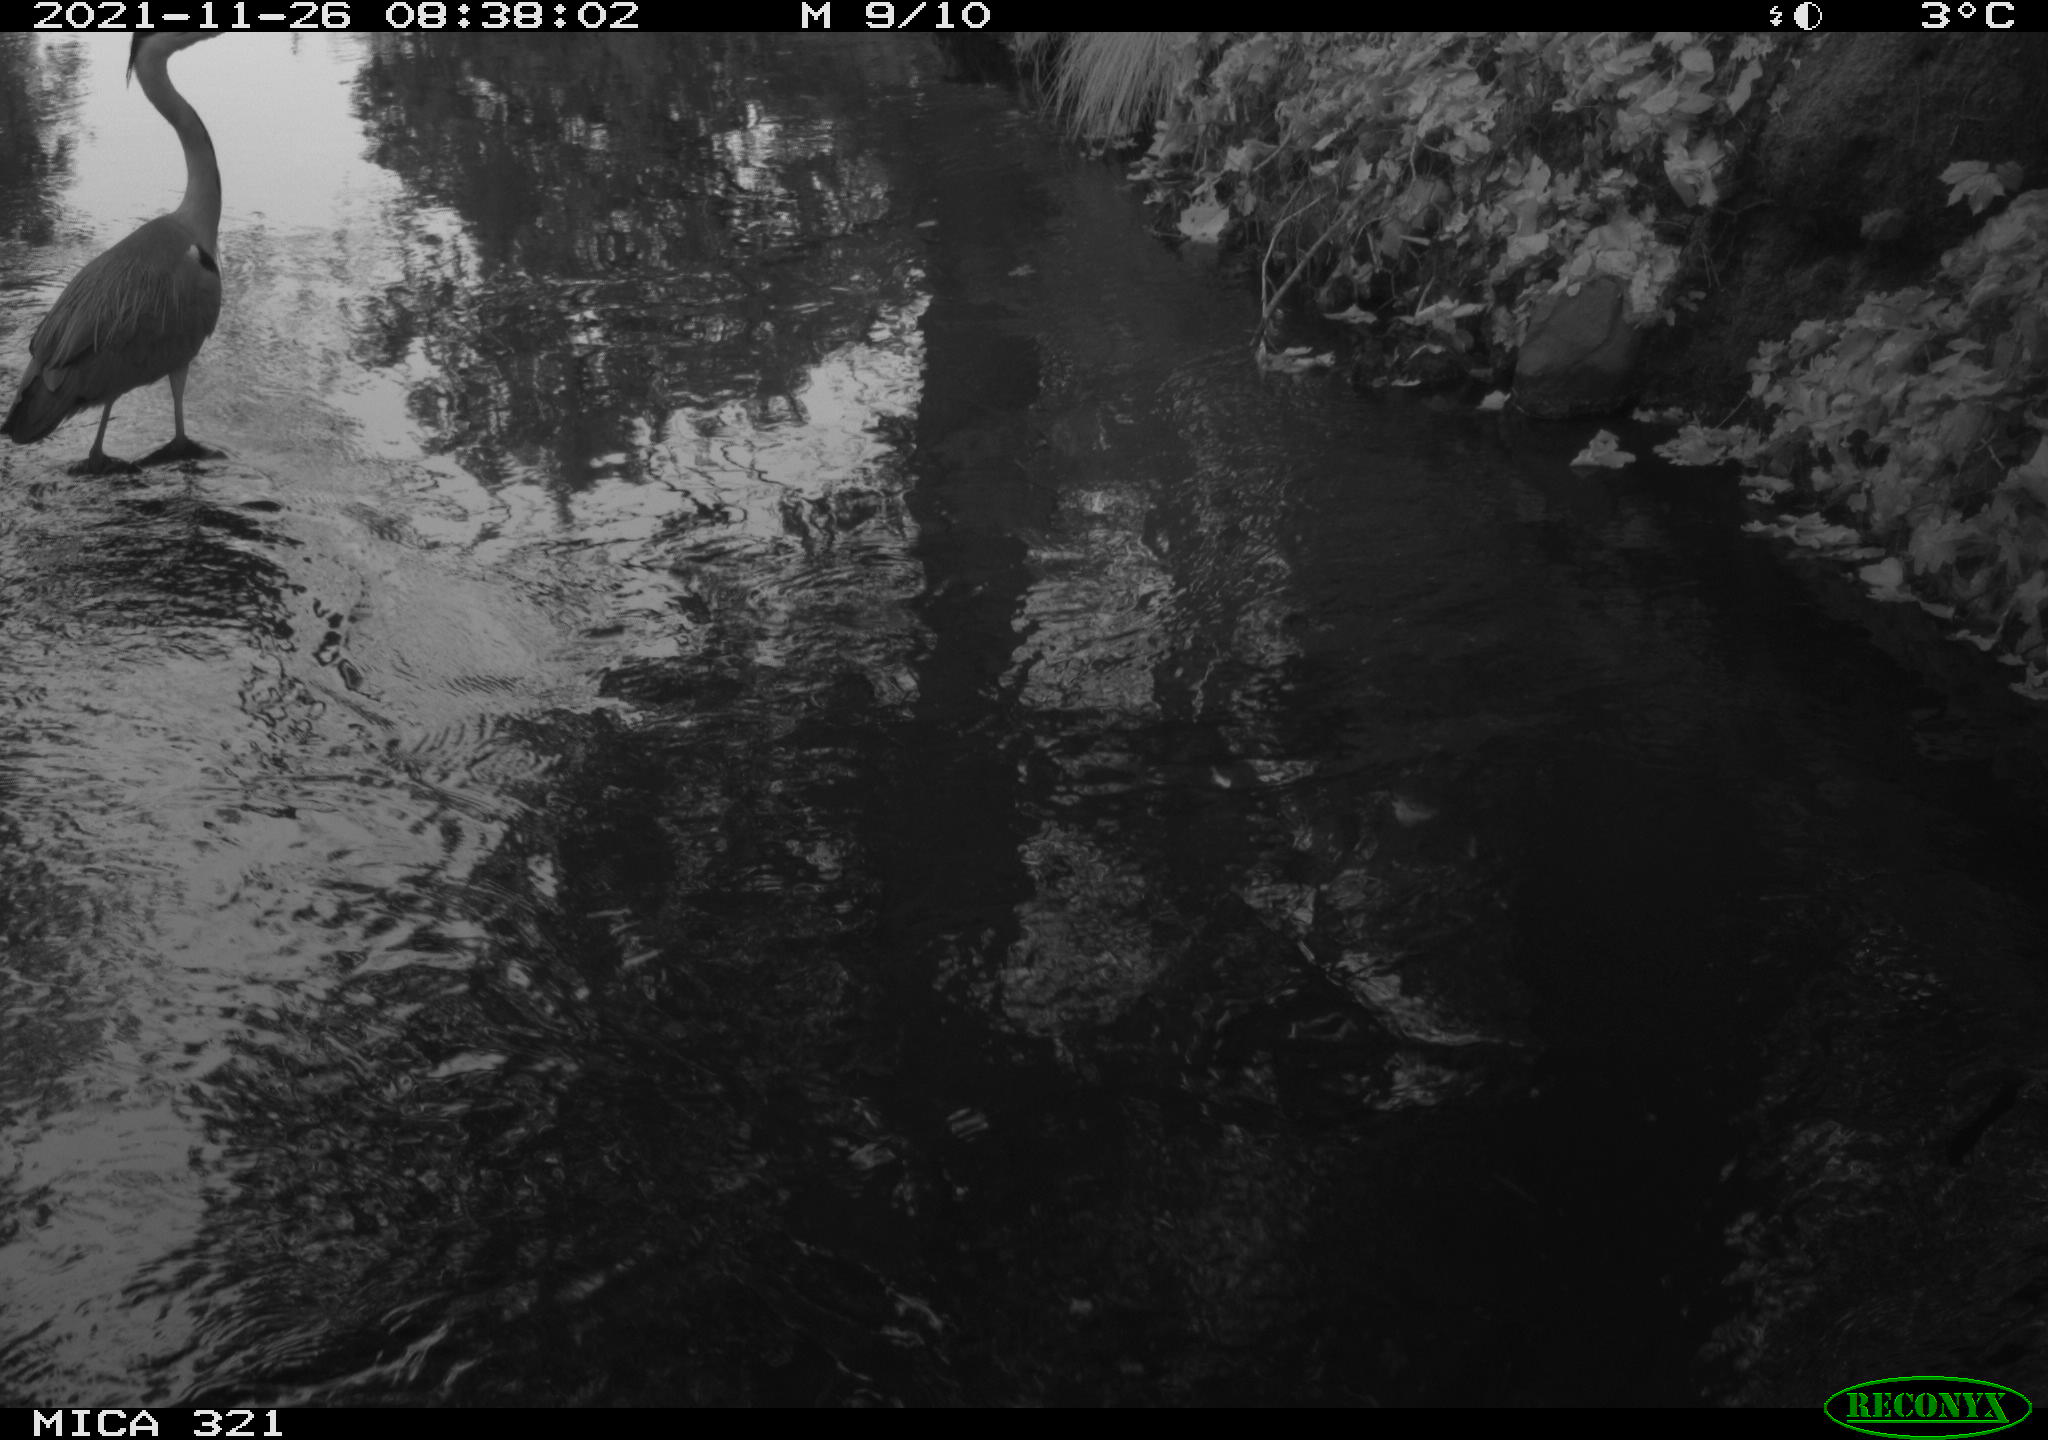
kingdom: Animalia
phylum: Chordata
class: Aves
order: Pelecaniformes
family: Ardeidae
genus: Ardea
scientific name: Ardea cinerea
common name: Grey heron
